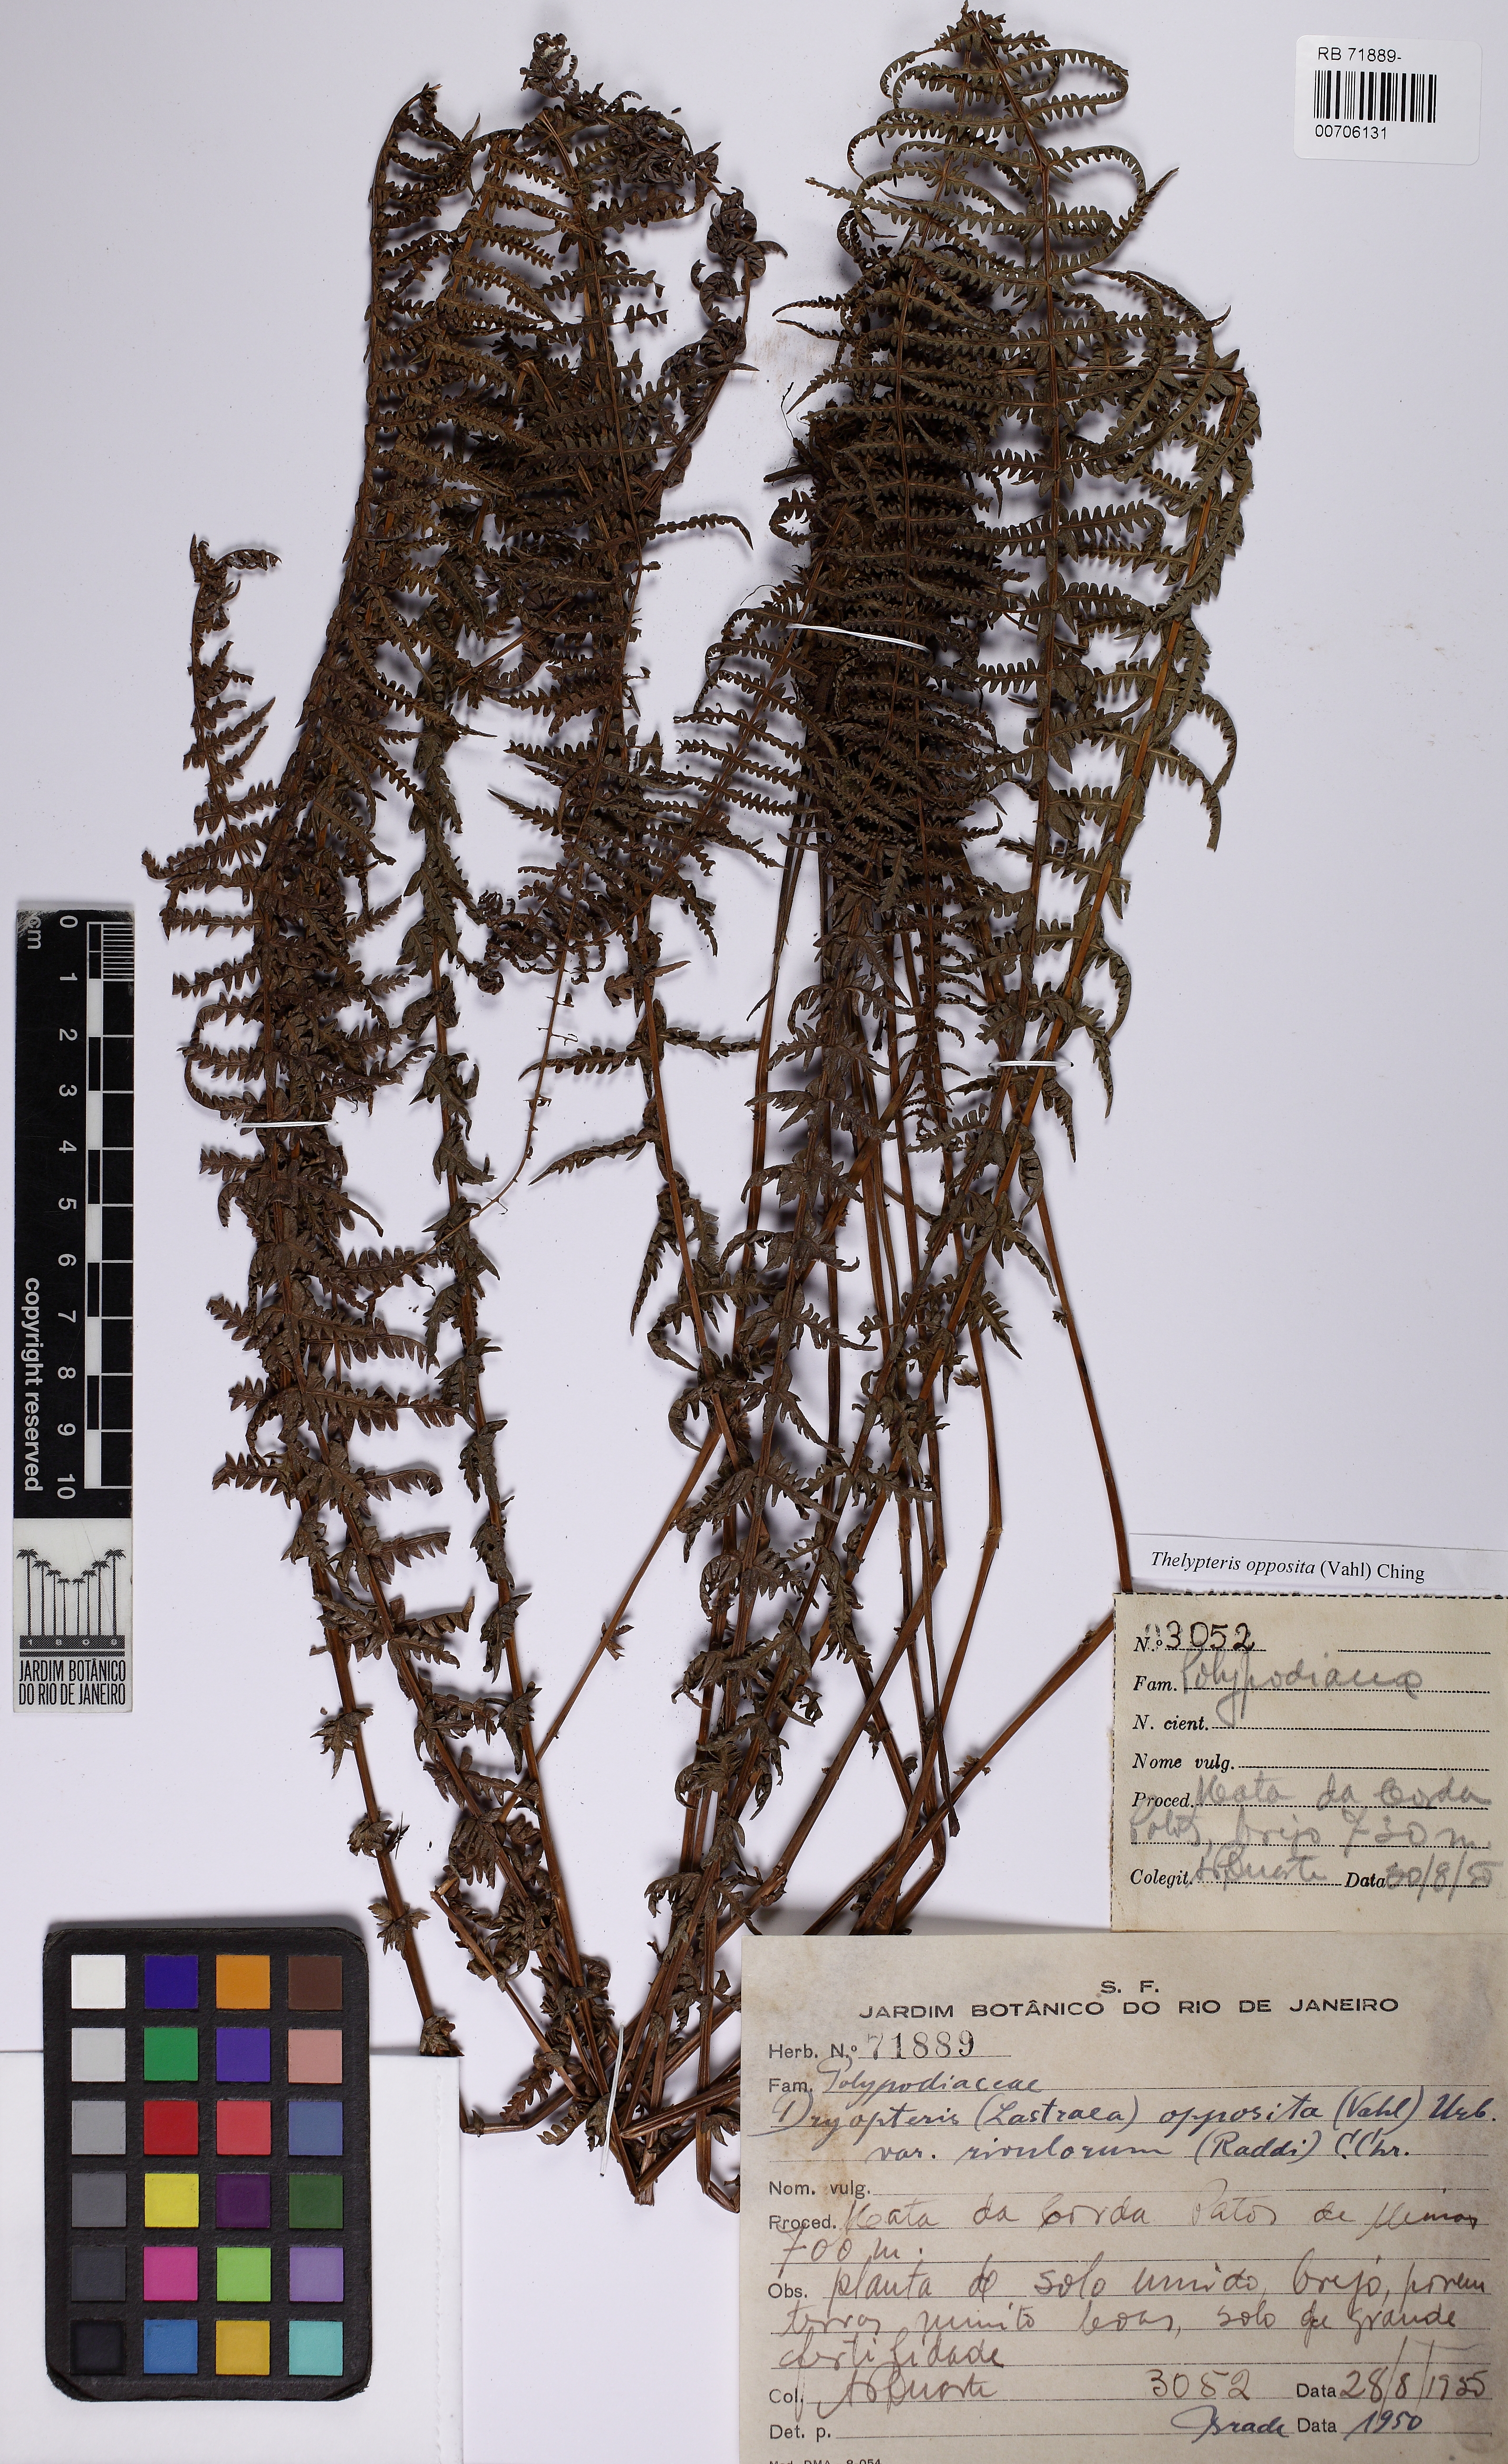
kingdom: Plantae
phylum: Tracheophyta
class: Polypodiopsida
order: Polypodiales
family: Thelypteridaceae
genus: Amauropelta
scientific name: Amauropelta opposita
